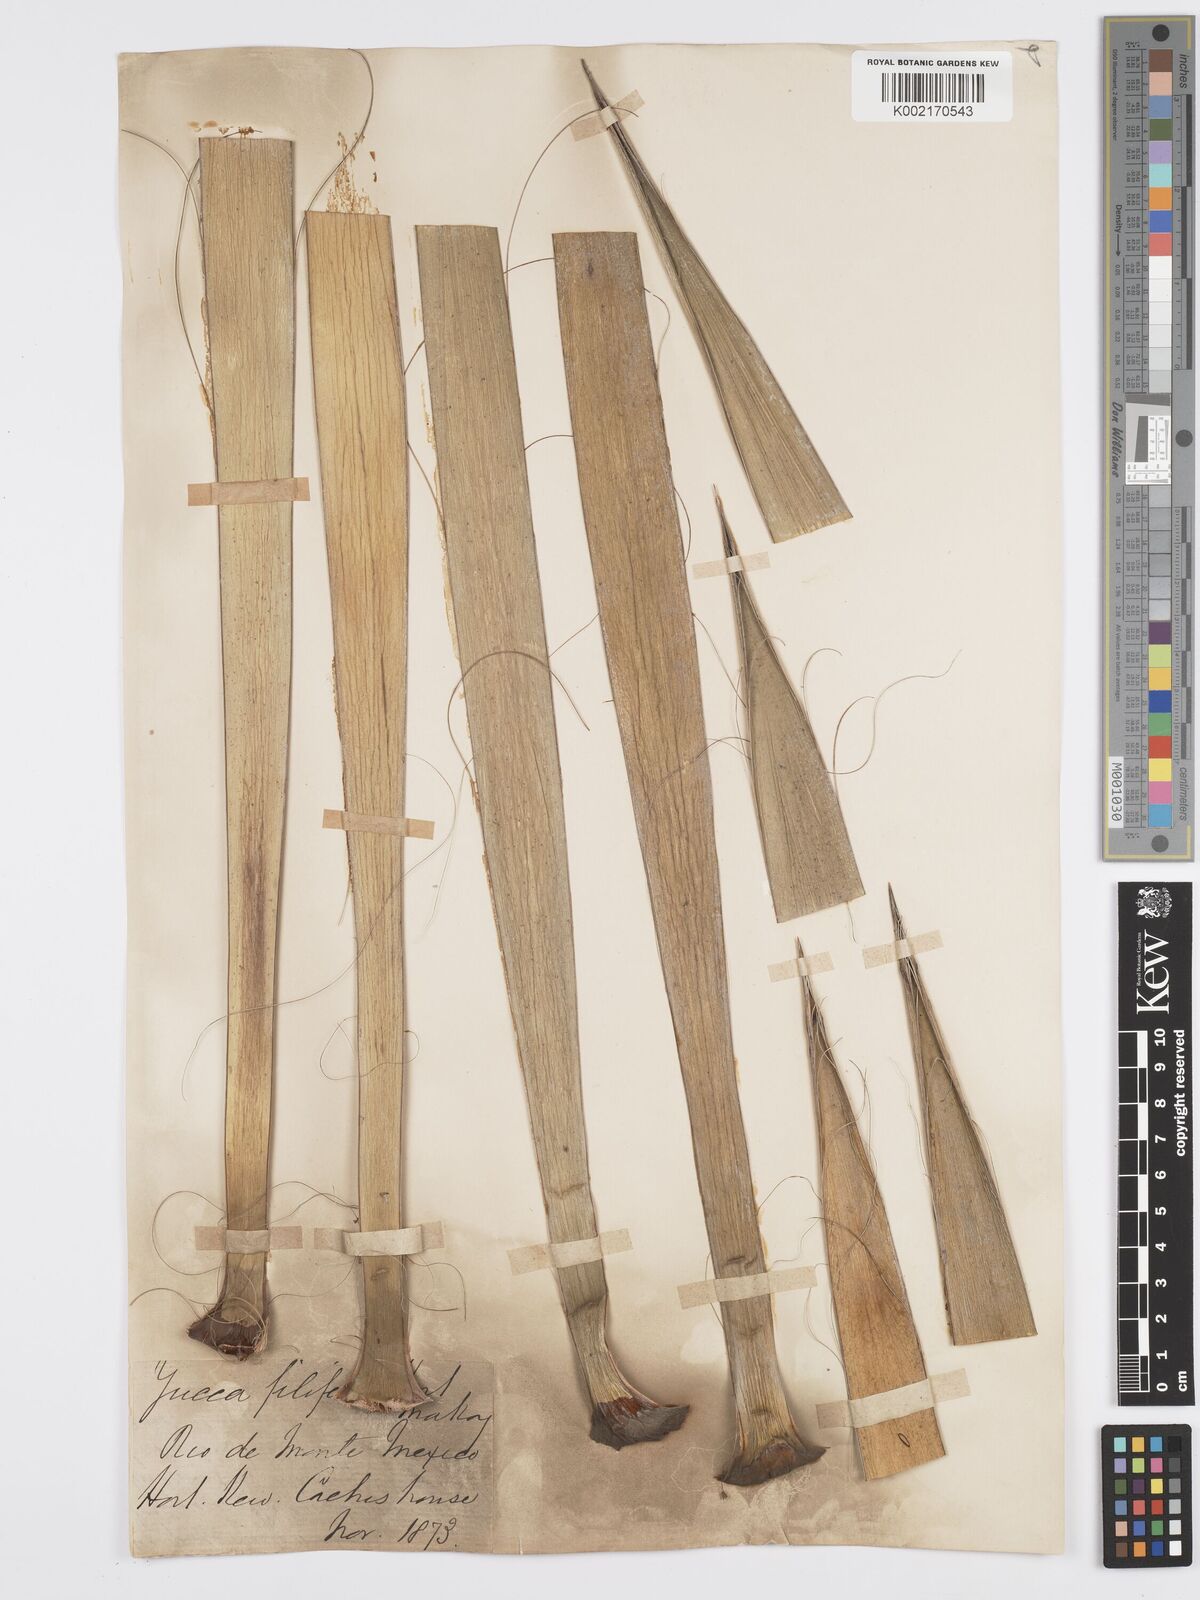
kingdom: Plantae
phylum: Tracheophyta
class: Liliopsida
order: Asparagales
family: Asparagaceae
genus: Yucca
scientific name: Yucca filifera
